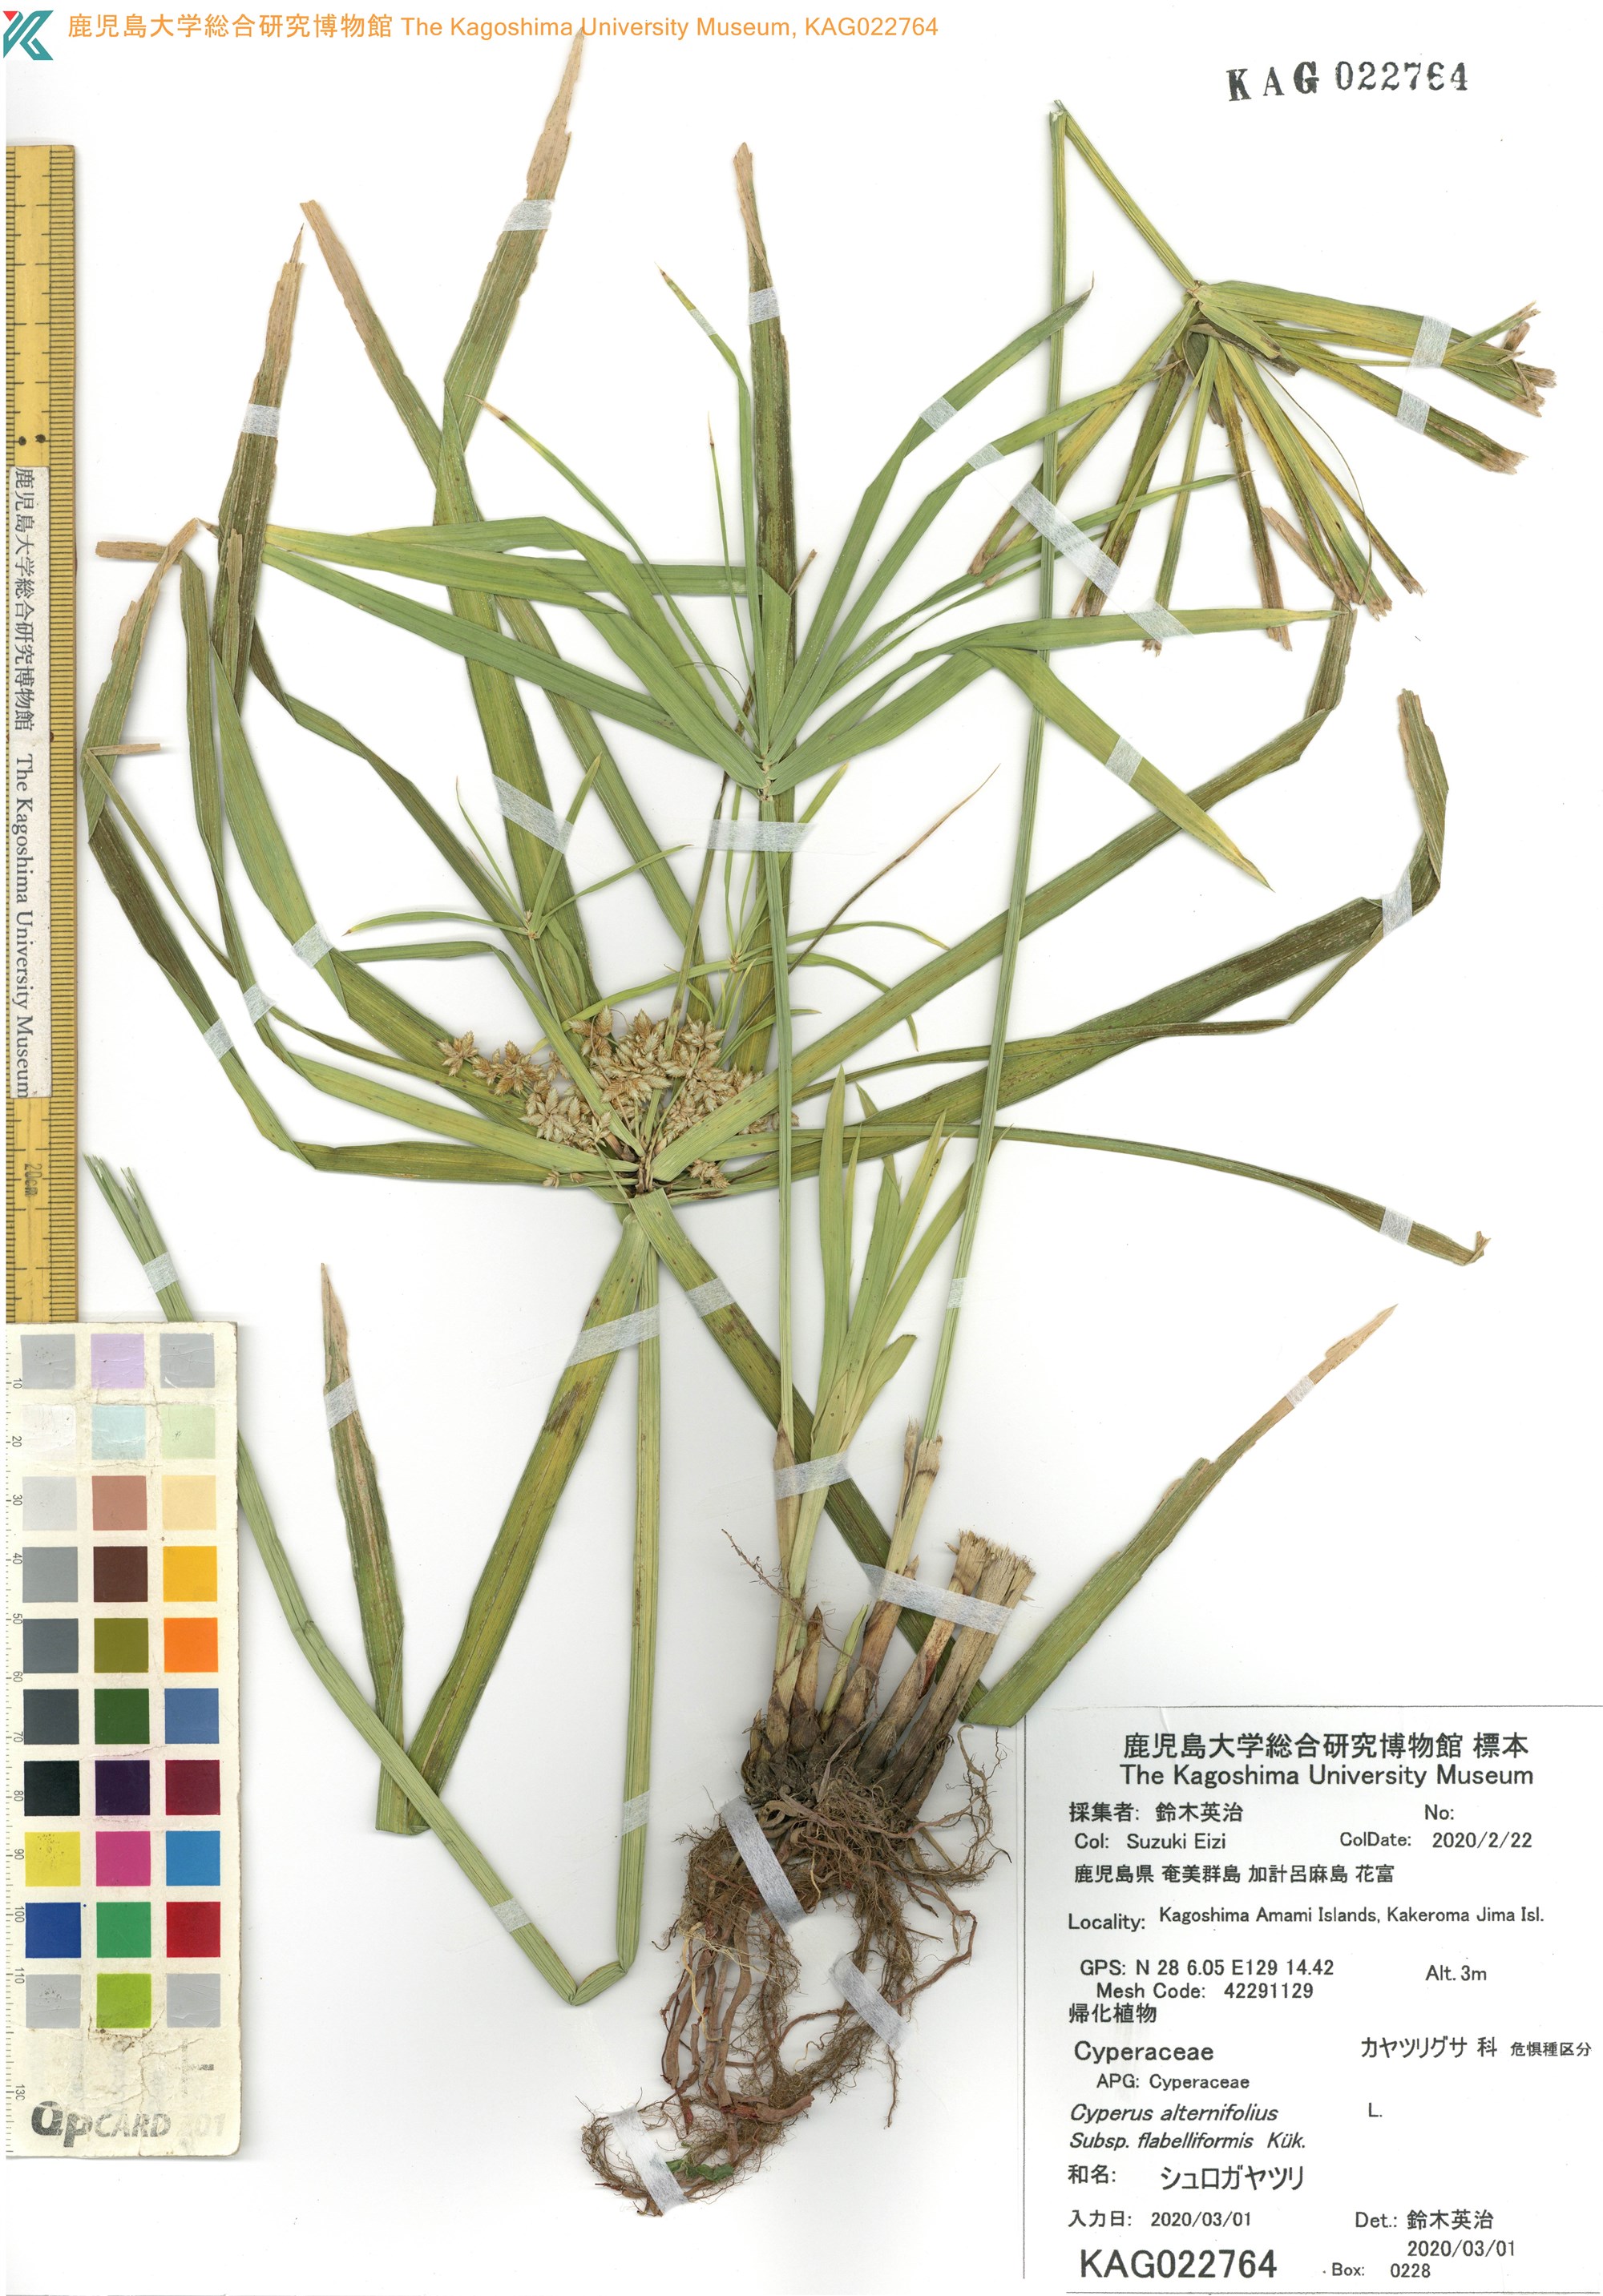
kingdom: Plantae
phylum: Tracheophyta
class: Liliopsida
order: Poales
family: Cyperaceae
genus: Cyperus
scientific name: Cyperus alternifolius
